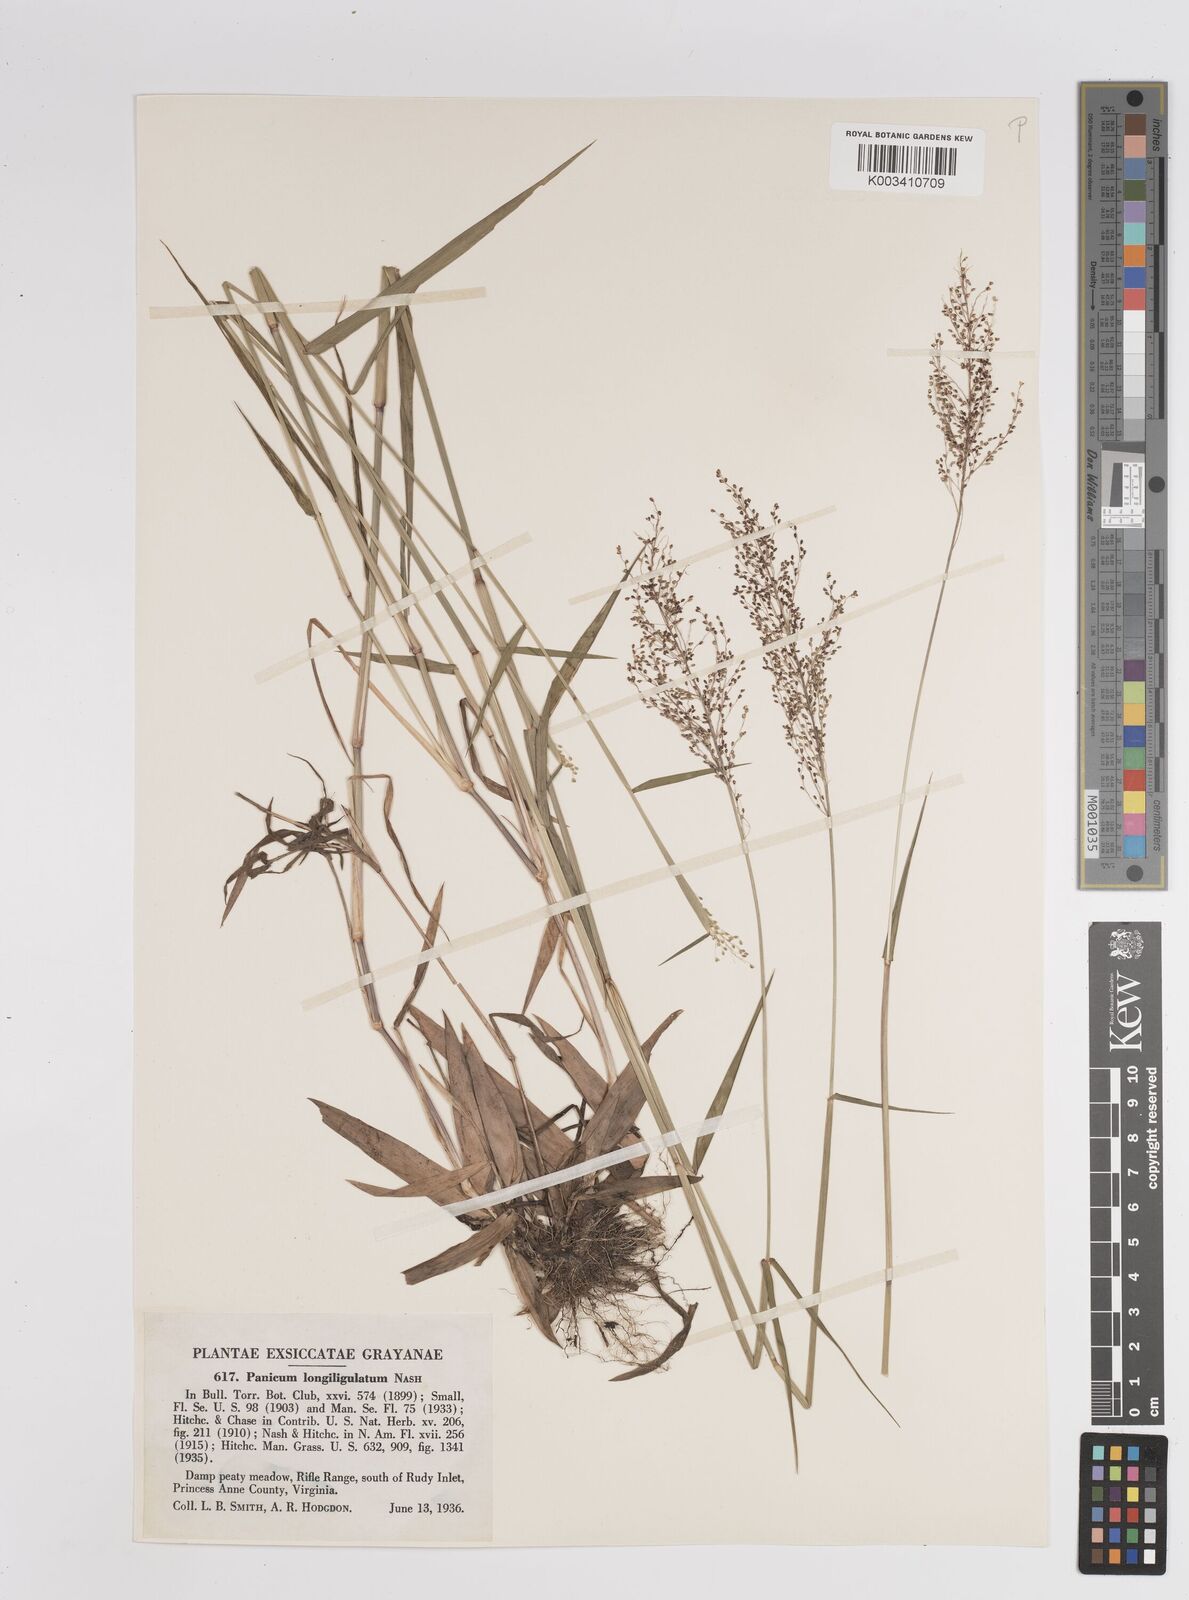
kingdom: Plantae
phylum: Tracheophyta
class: Liliopsida
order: Poales
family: Poaceae
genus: Dichanthelium
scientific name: Dichanthelium longiligulatum
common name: Long-ligule panicgrass
